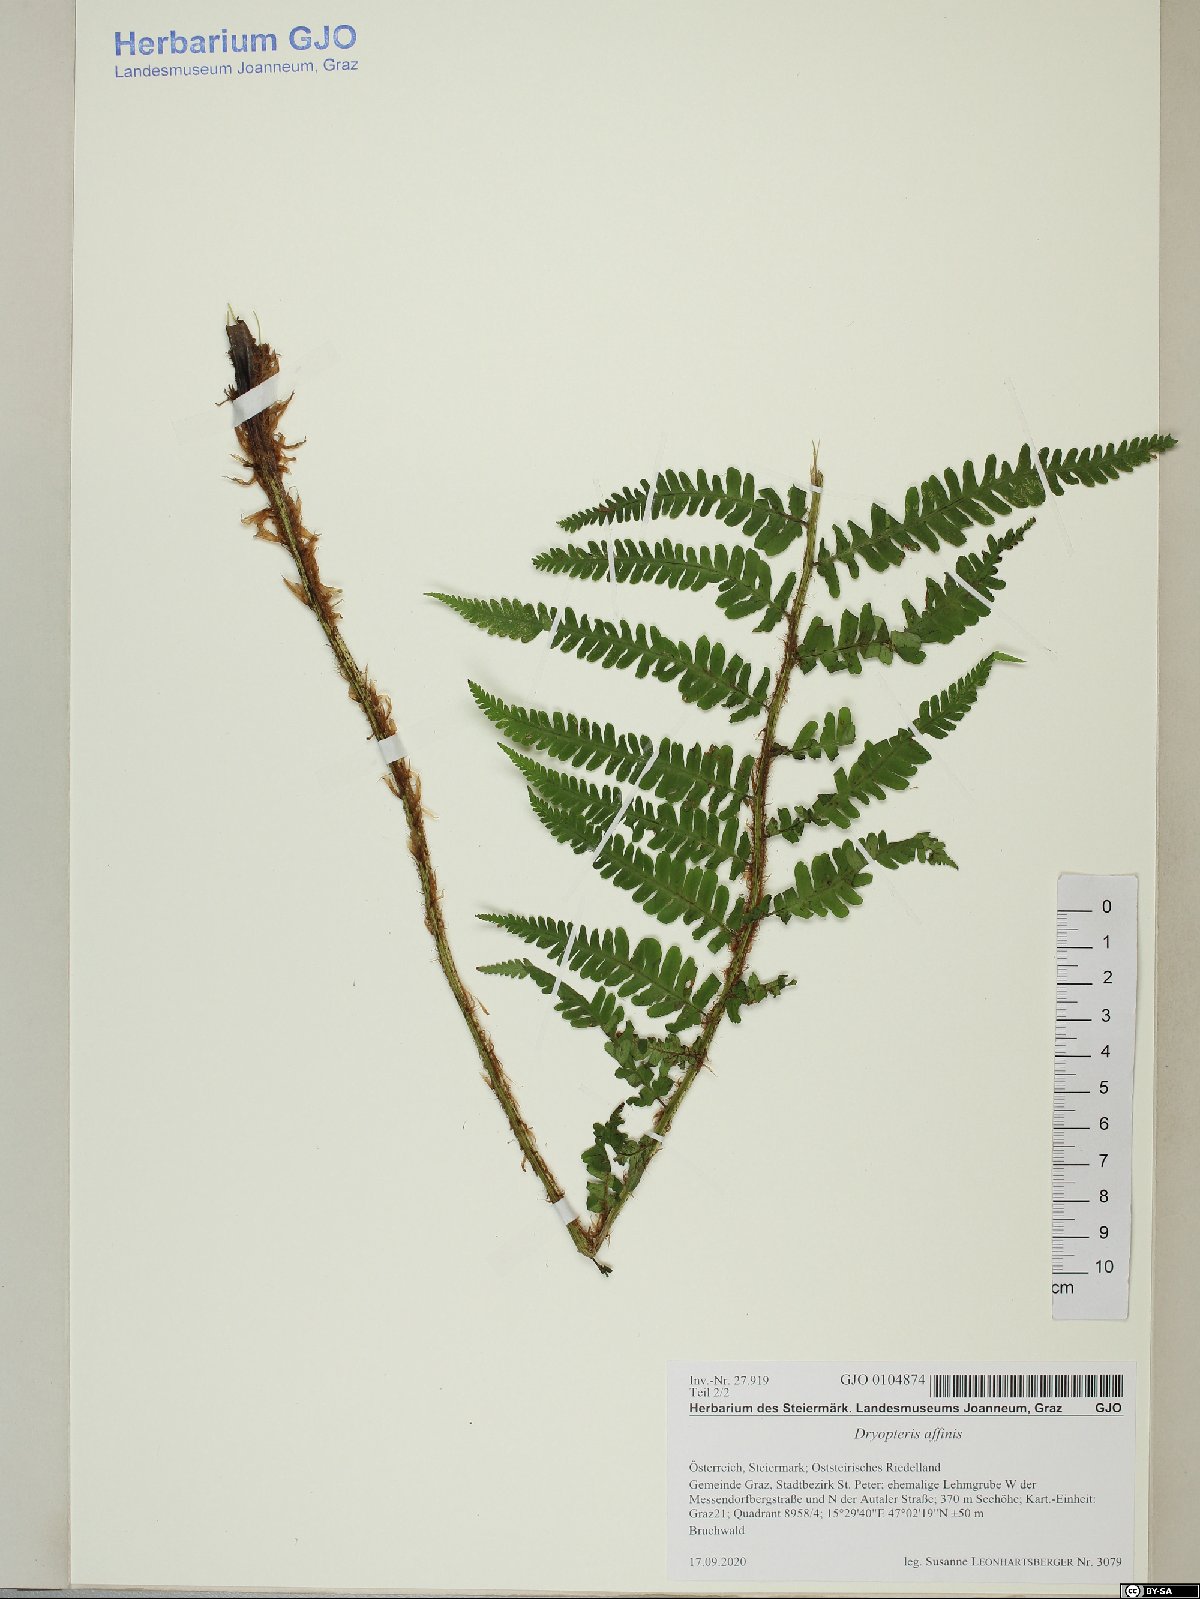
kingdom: Plantae
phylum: Tracheophyta
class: Polypodiopsida
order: Polypodiales
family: Dryopteridaceae
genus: Dryopteris
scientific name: Dryopteris affinis
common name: Scaly male fern
